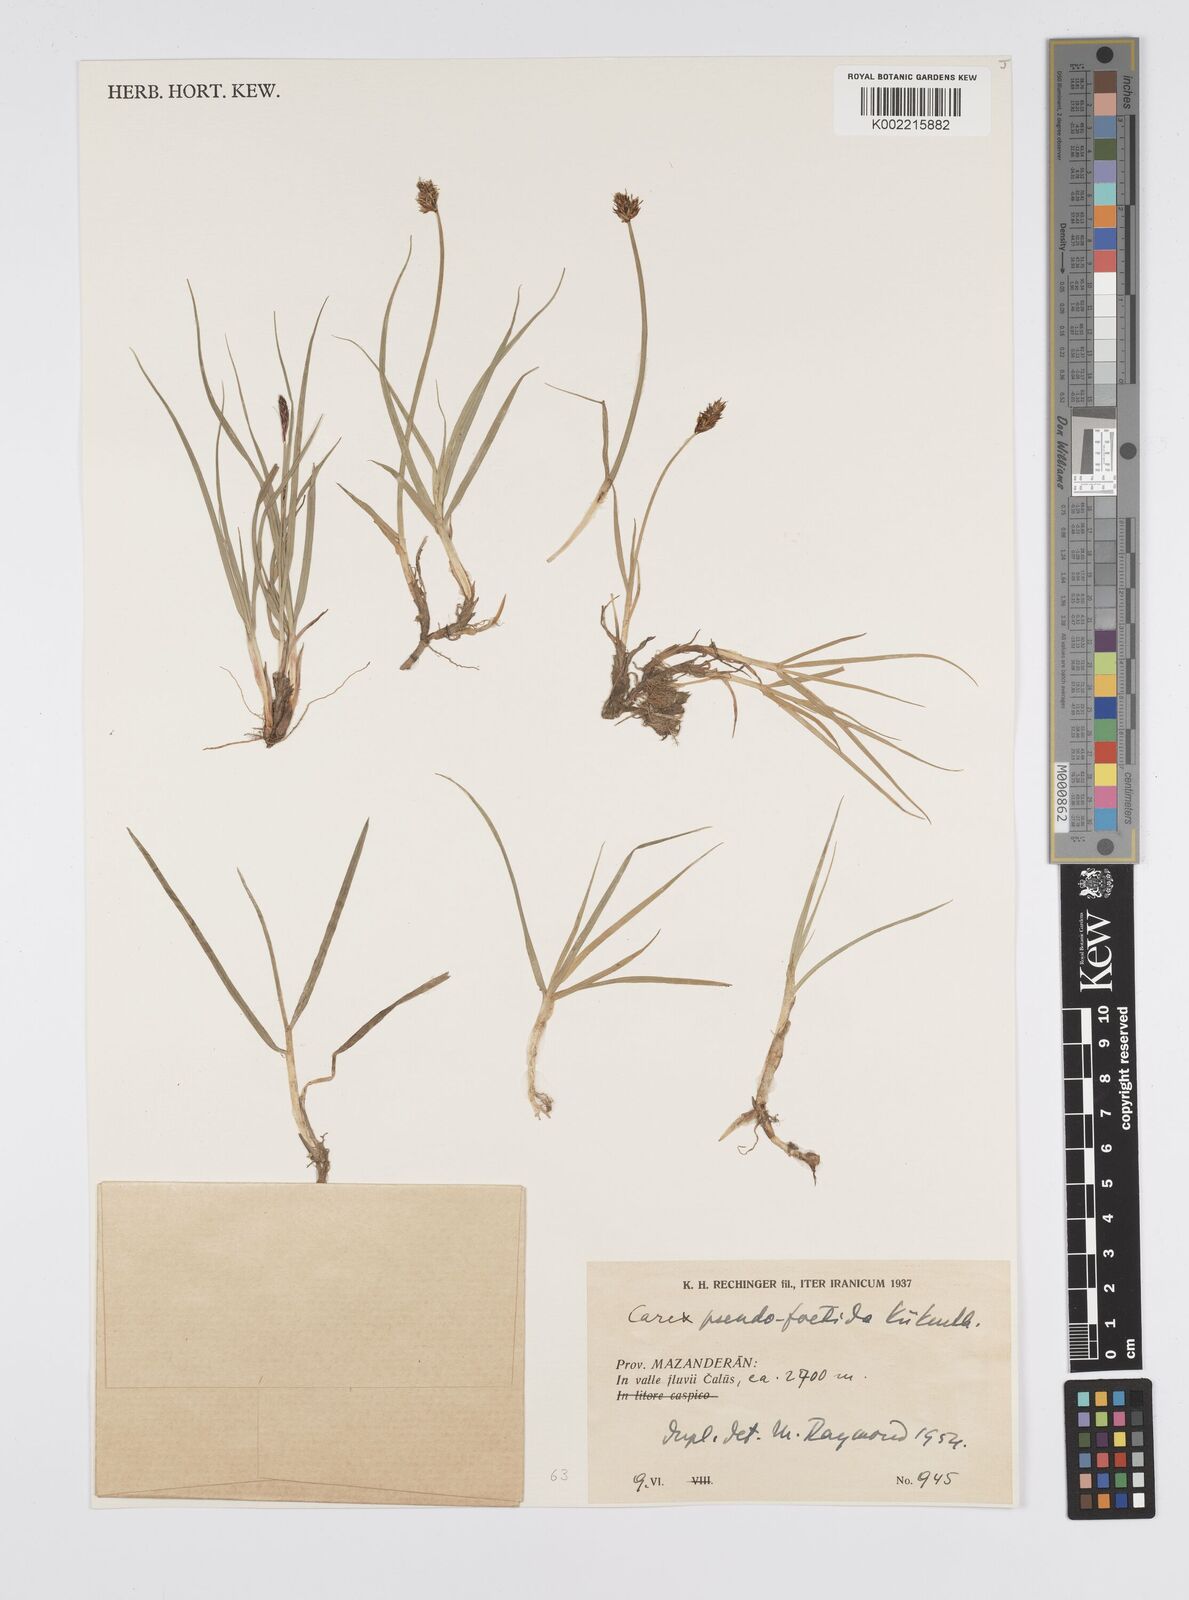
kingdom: Plantae
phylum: Tracheophyta
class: Liliopsida
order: Poales
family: Cyperaceae
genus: Carex
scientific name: Carex pseudofoetida
